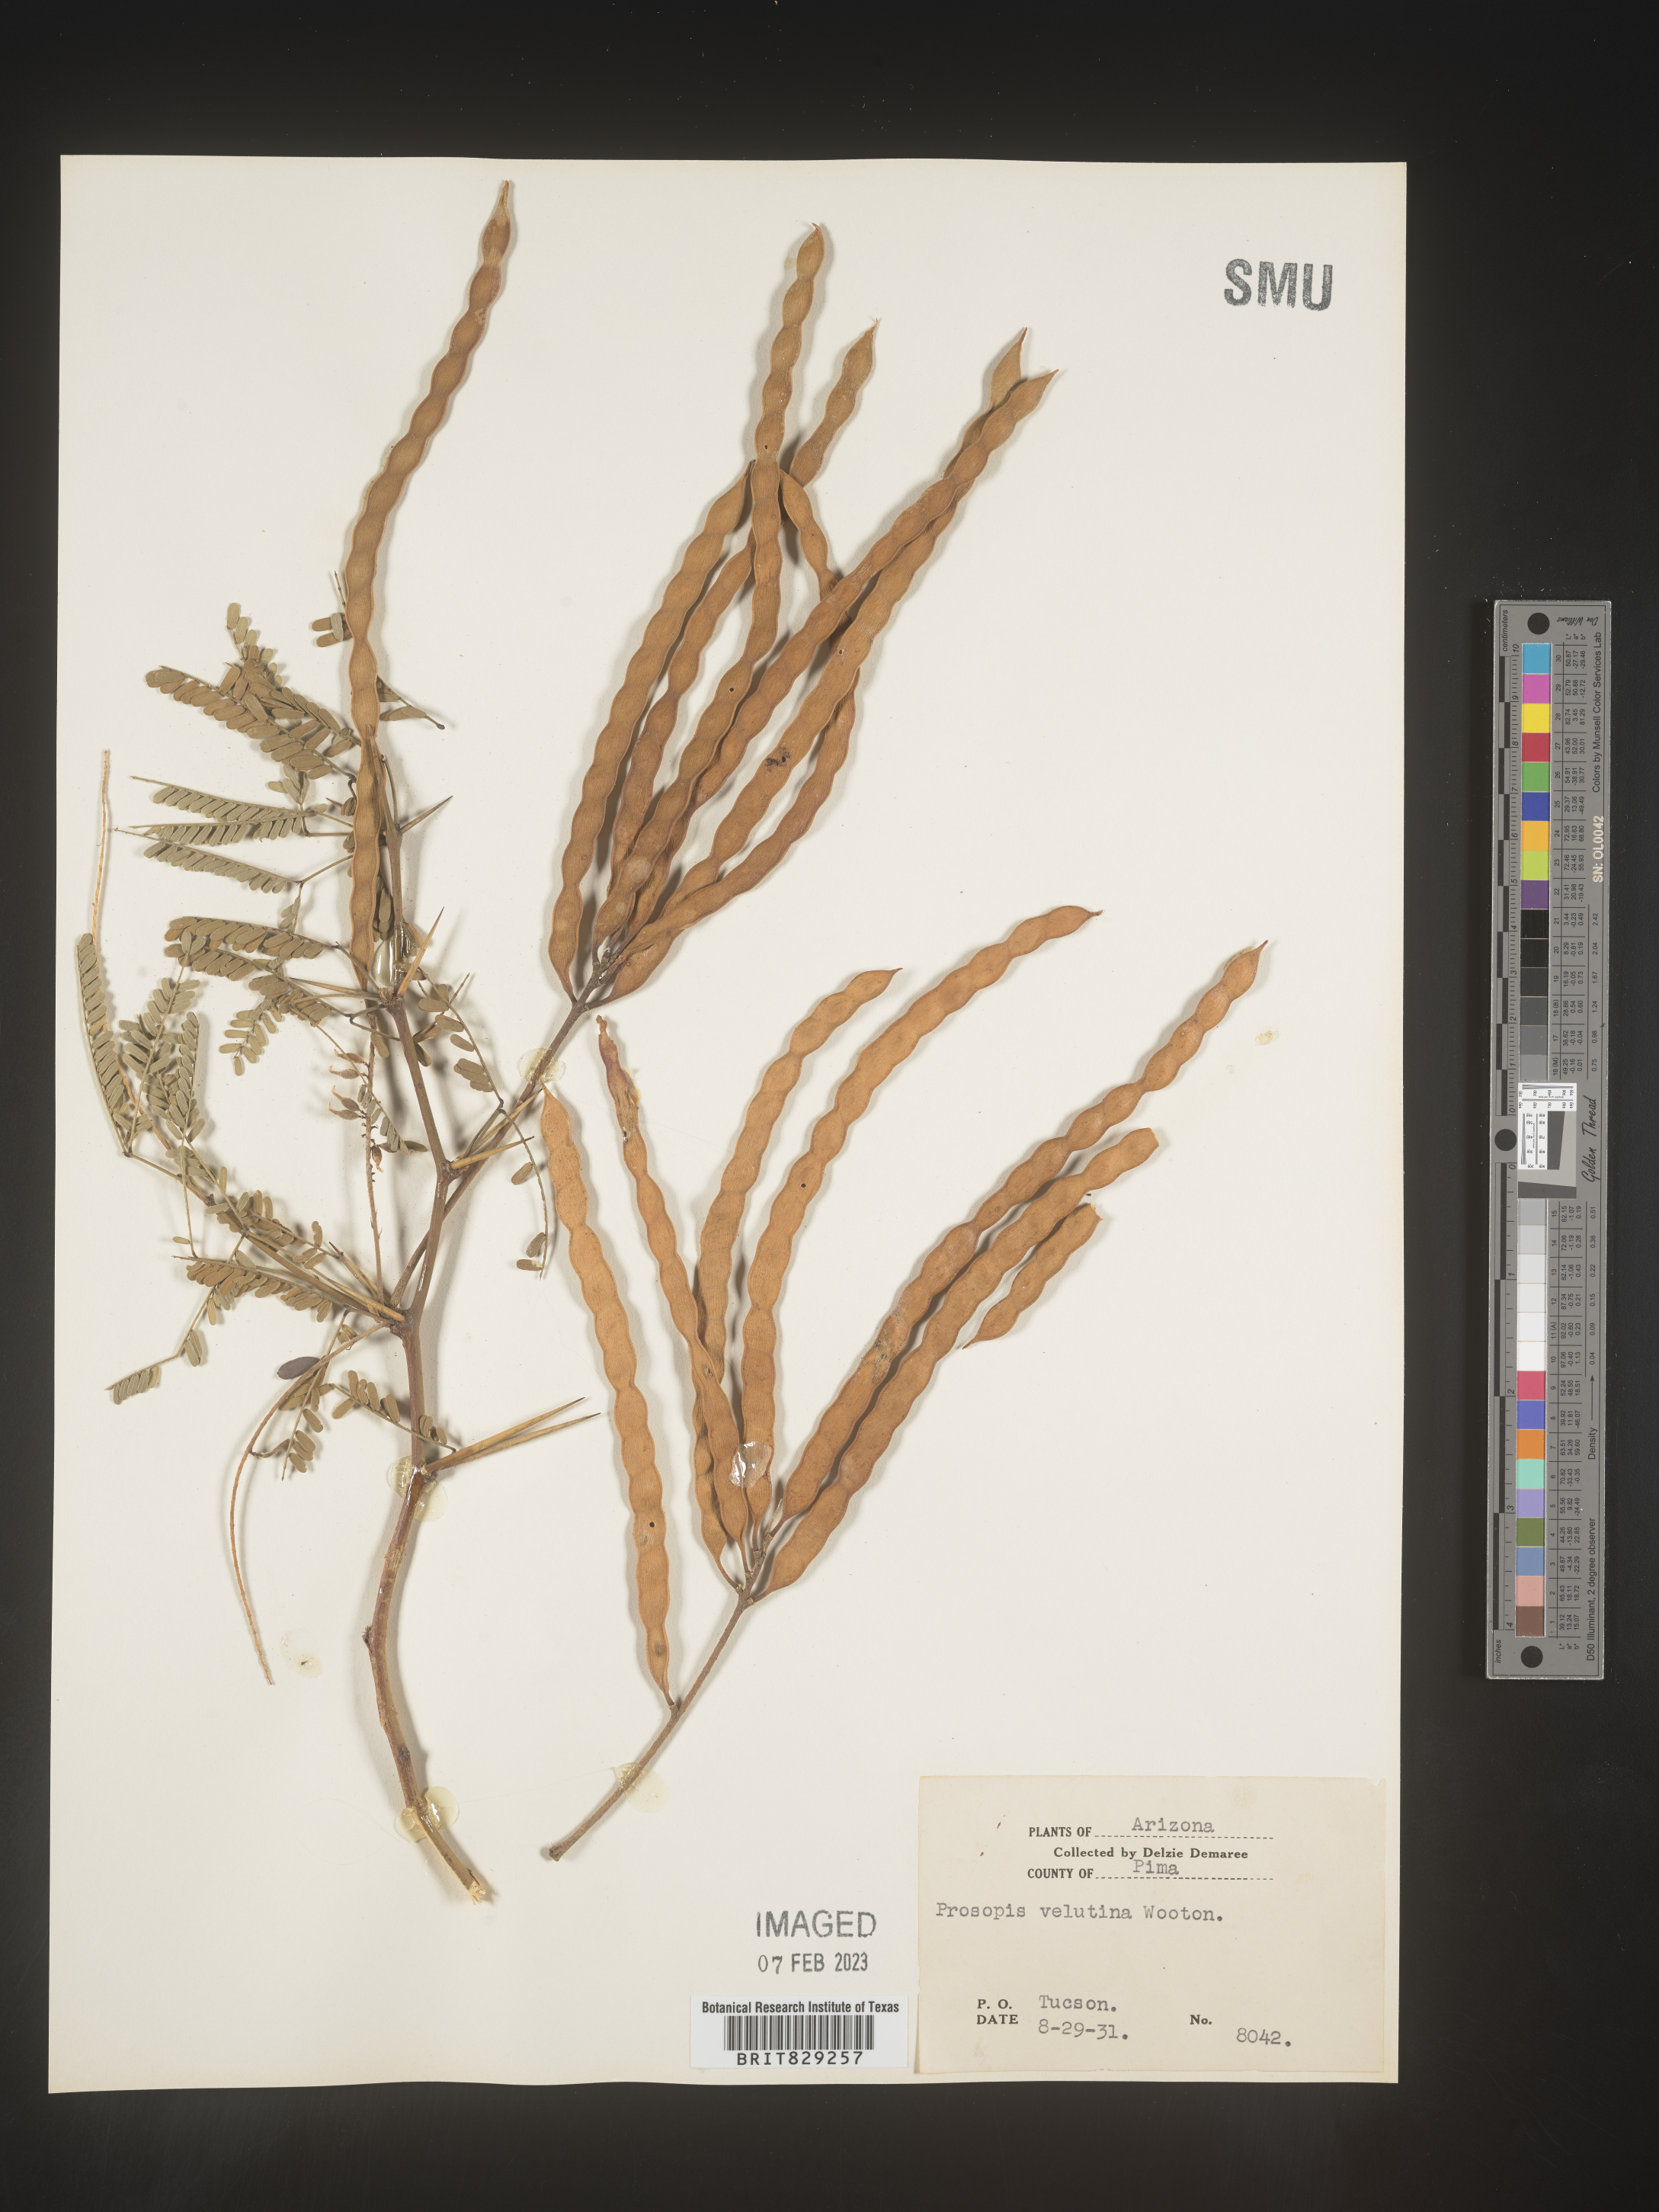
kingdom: Plantae
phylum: Tracheophyta
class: Magnoliopsida
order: Fabales
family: Fabaceae
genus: Prosopis
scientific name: Prosopis
